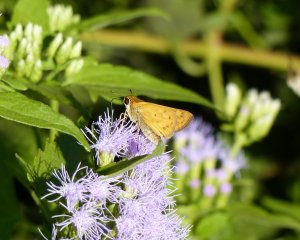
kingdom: Animalia
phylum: Arthropoda
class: Insecta
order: Lepidoptera
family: Hesperiidae
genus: Hylephila
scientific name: Hylephila phyleus
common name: Fiery Skipper
